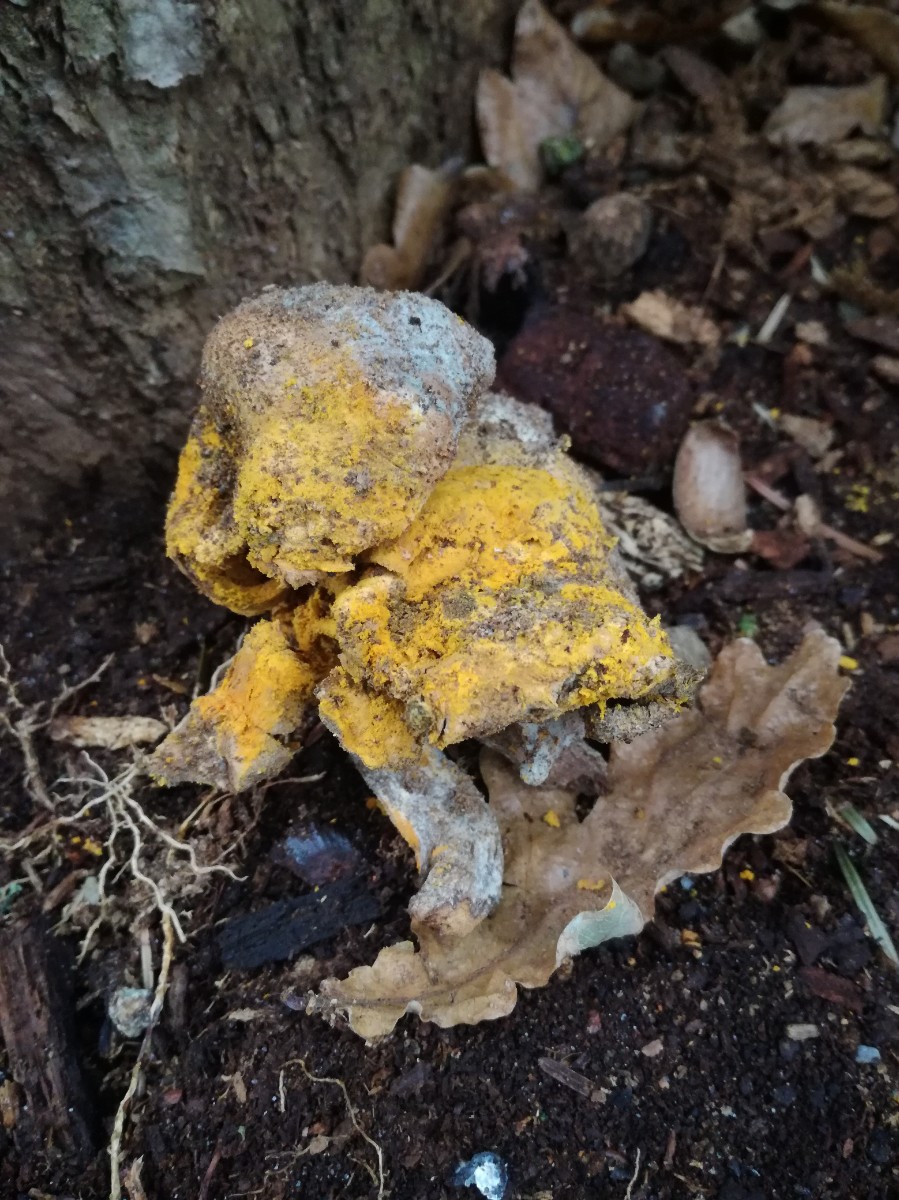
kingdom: Fungi
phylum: Ascomycota
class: Sordariomycetes
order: Hypocreales
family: Hypocreaceae
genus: Hypomyces
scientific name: Hypomyces
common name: snylteskorpe
